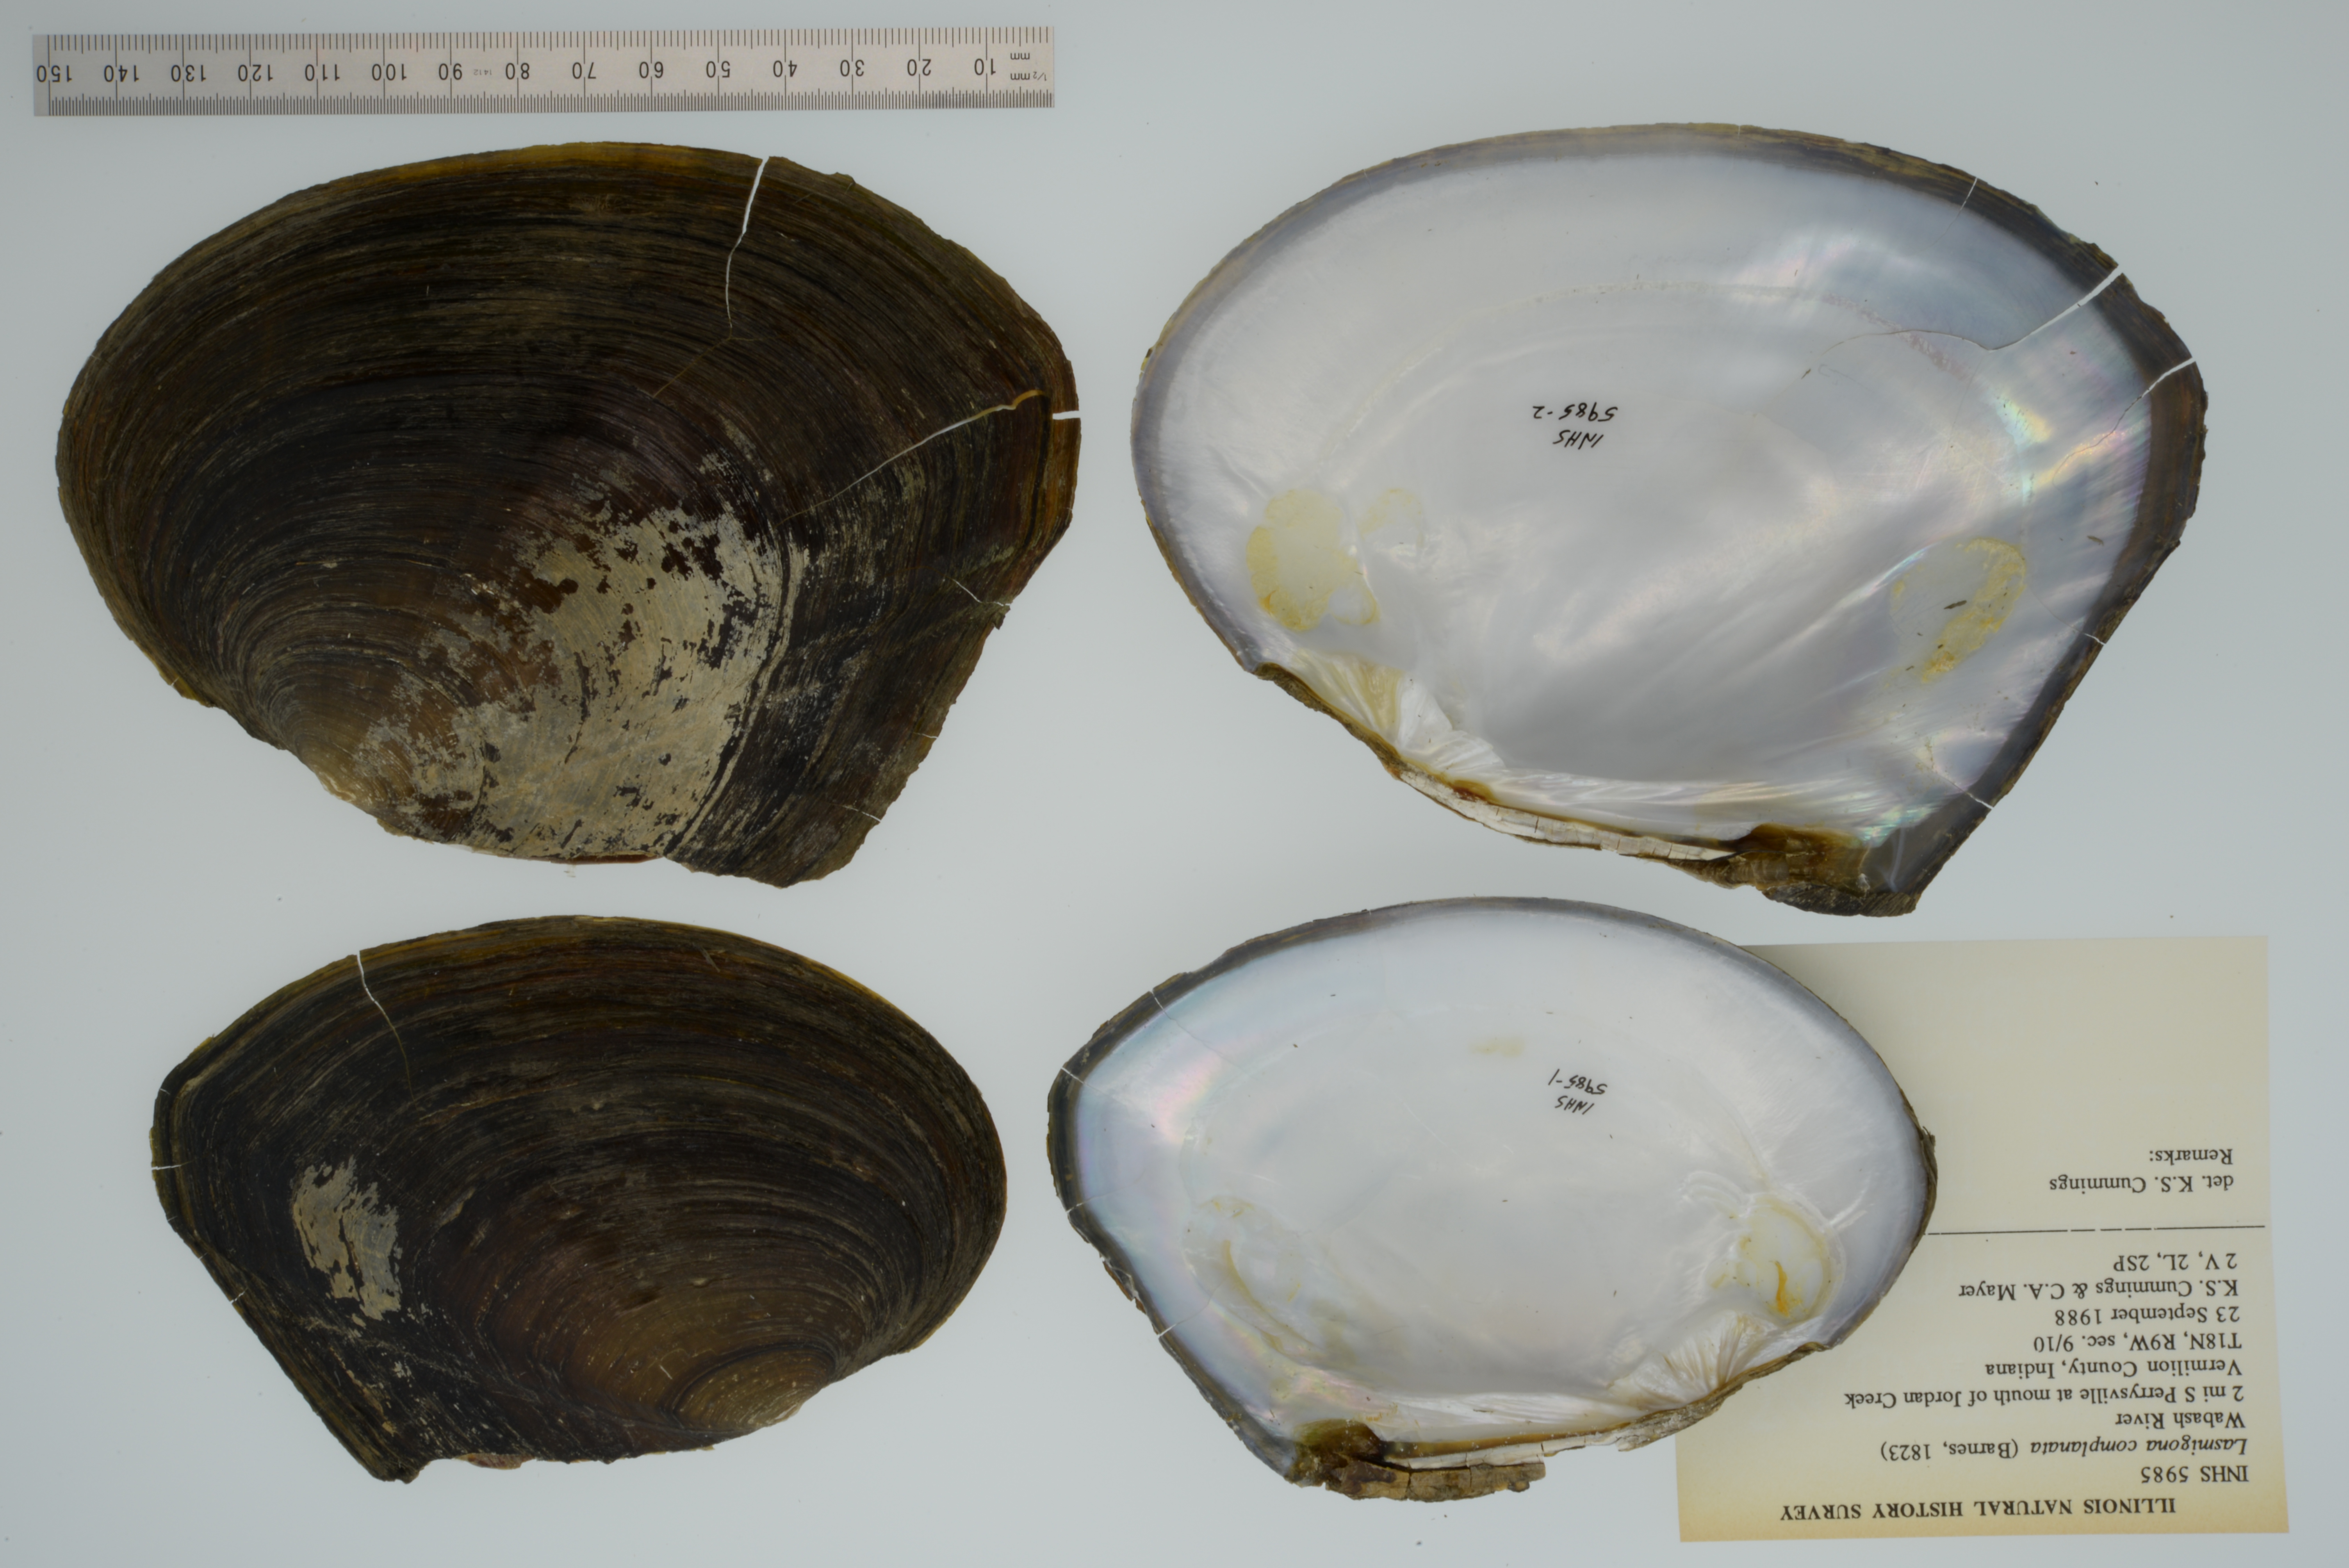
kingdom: Animalia
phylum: Mollusca
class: Bivalvia
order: Unionida
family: Unionidae
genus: Lasmigona
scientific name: Lasmigona complanata
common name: White heelsplitter
